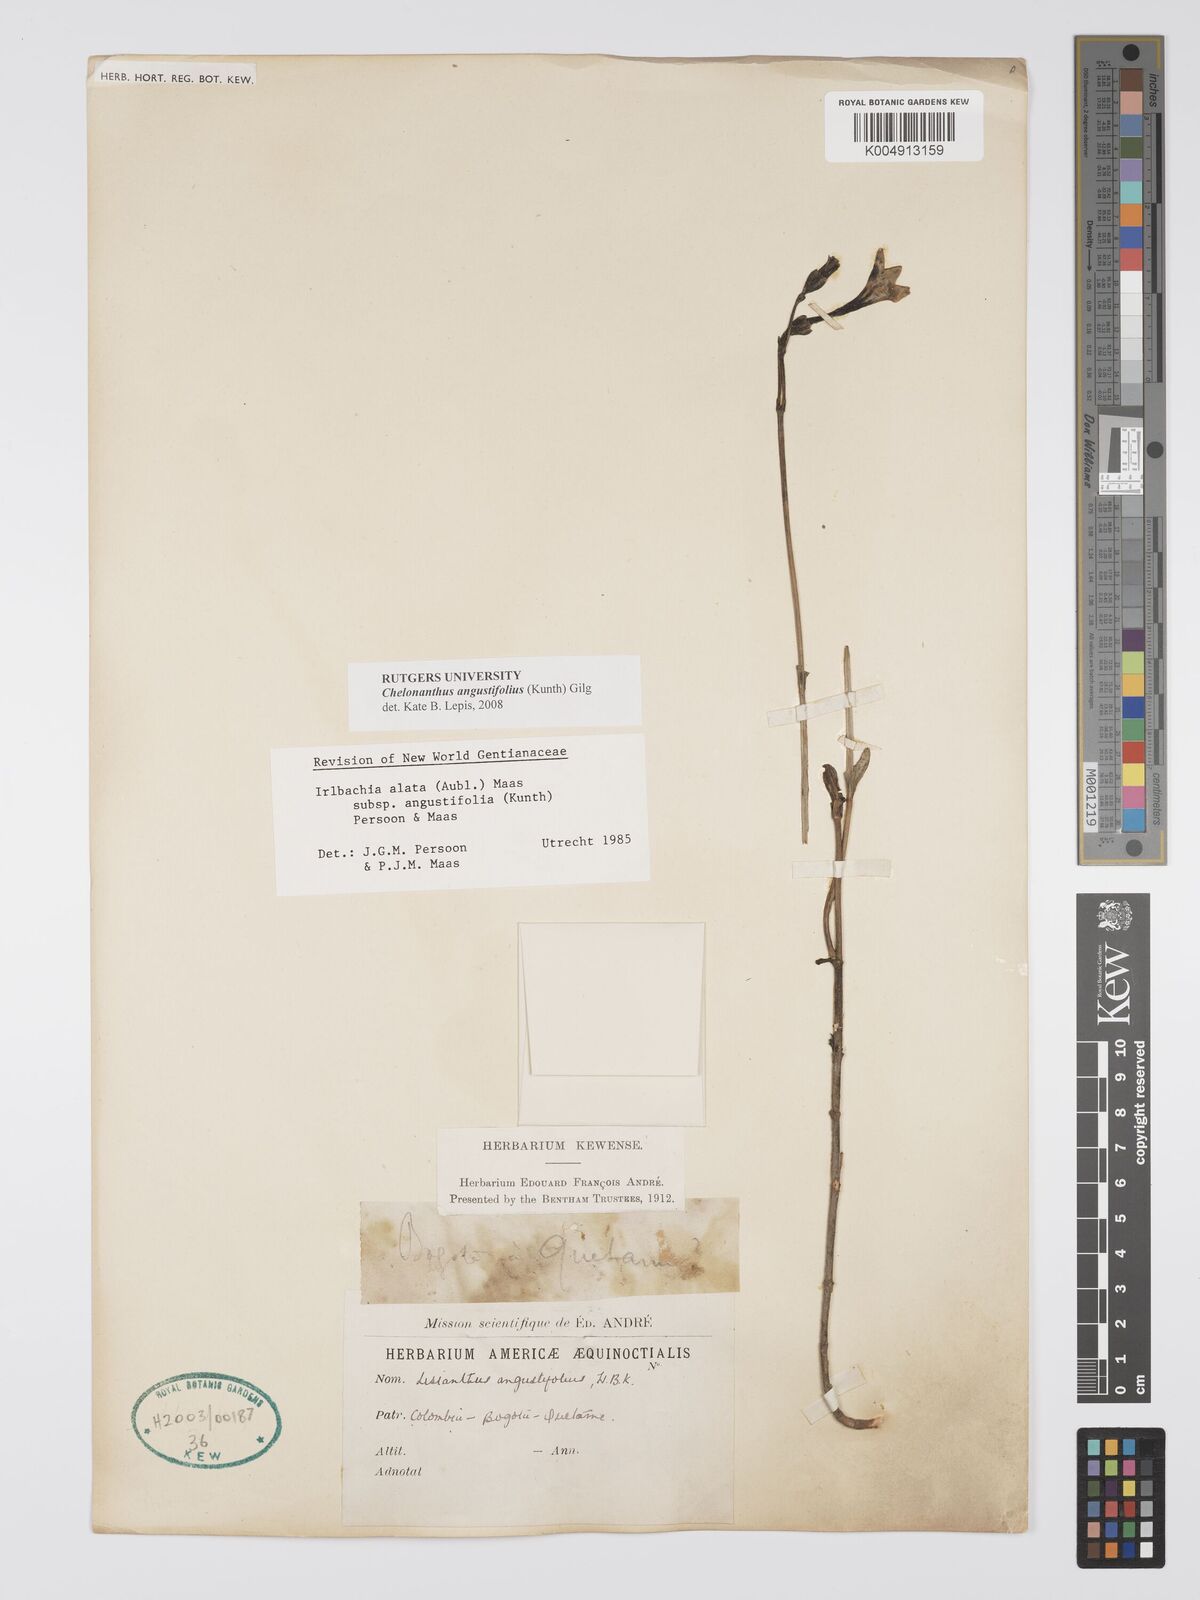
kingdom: Plantae
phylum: Tracheophyta
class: Magnoliopsida
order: Gentianales
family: Gentianaceae
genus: Chelonanthus
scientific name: Chelonanthus alatus
